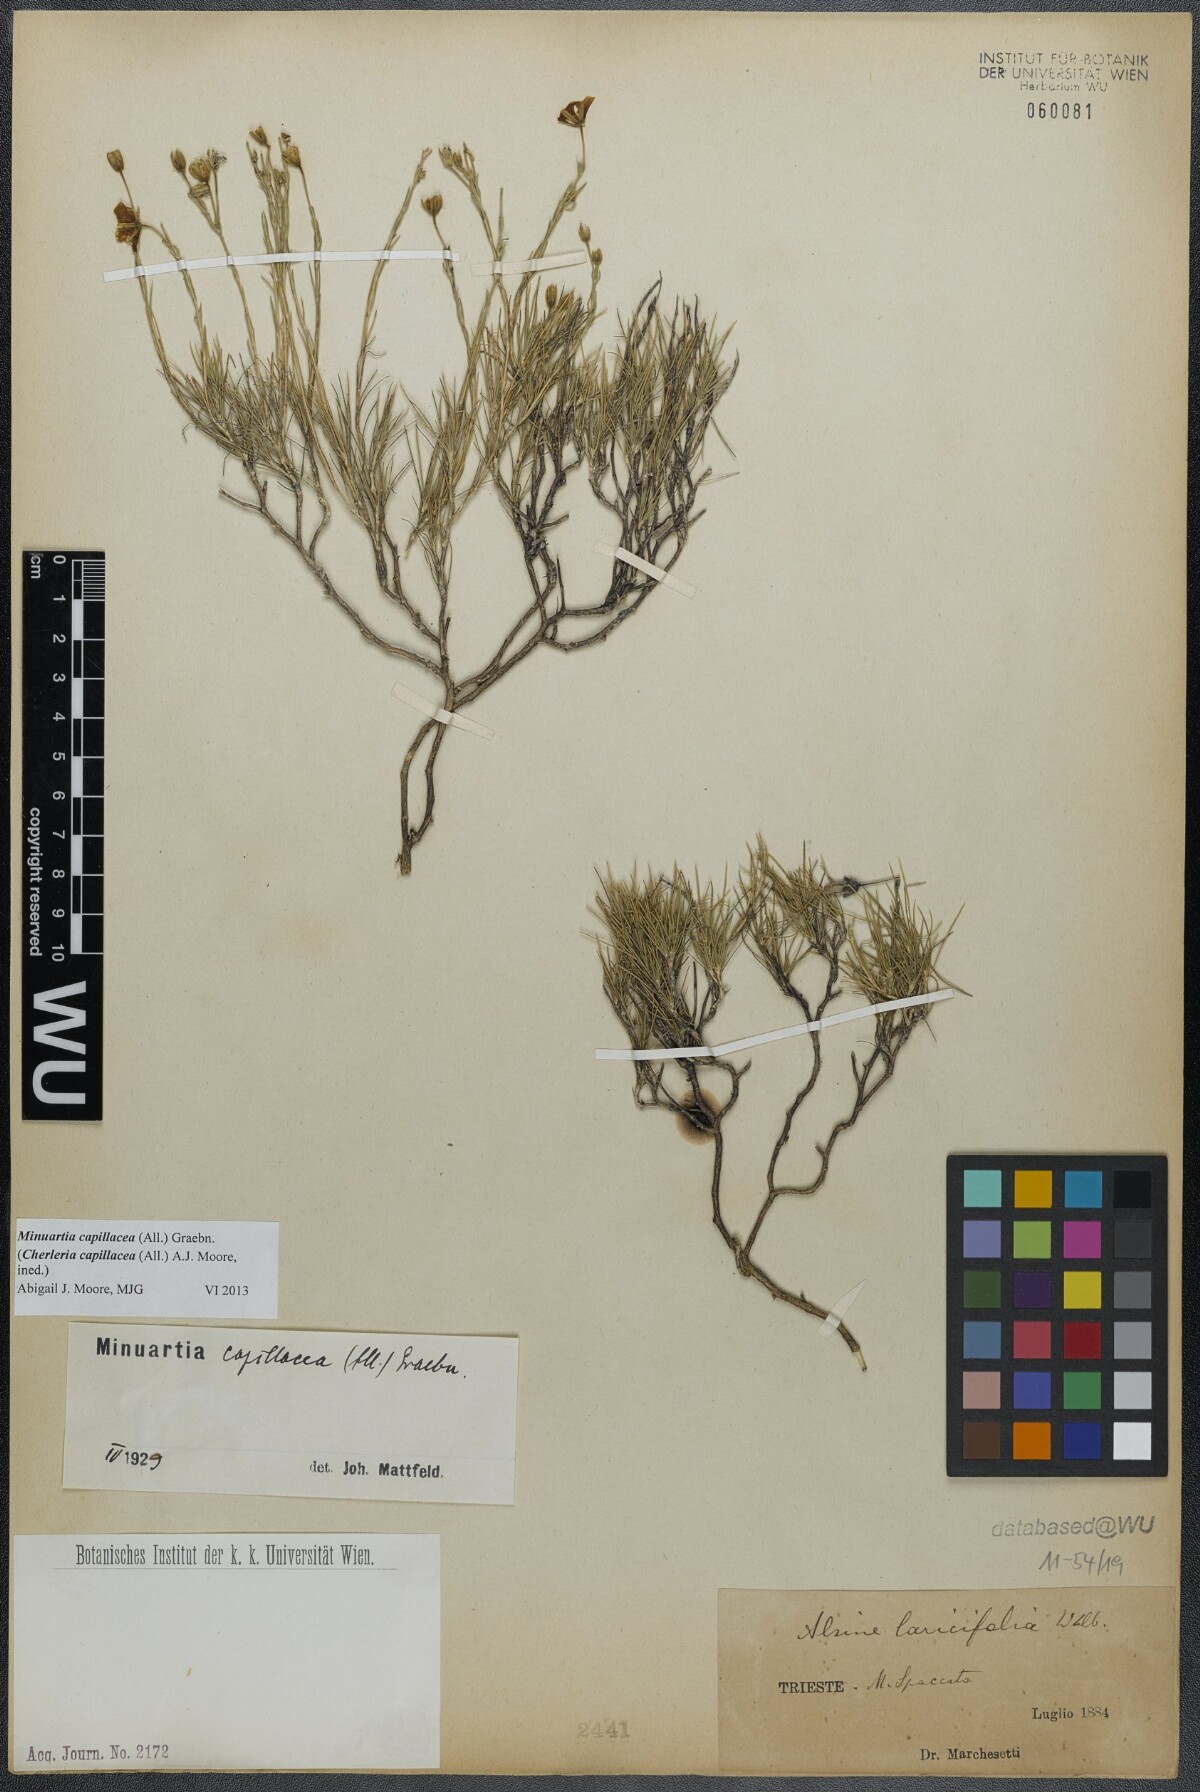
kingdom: Plantae
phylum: Tracheophyta
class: Magnoliopsida
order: Caryophyllales
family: Caryophyllaceae
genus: Cherleria
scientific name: Cherleria capillacea
